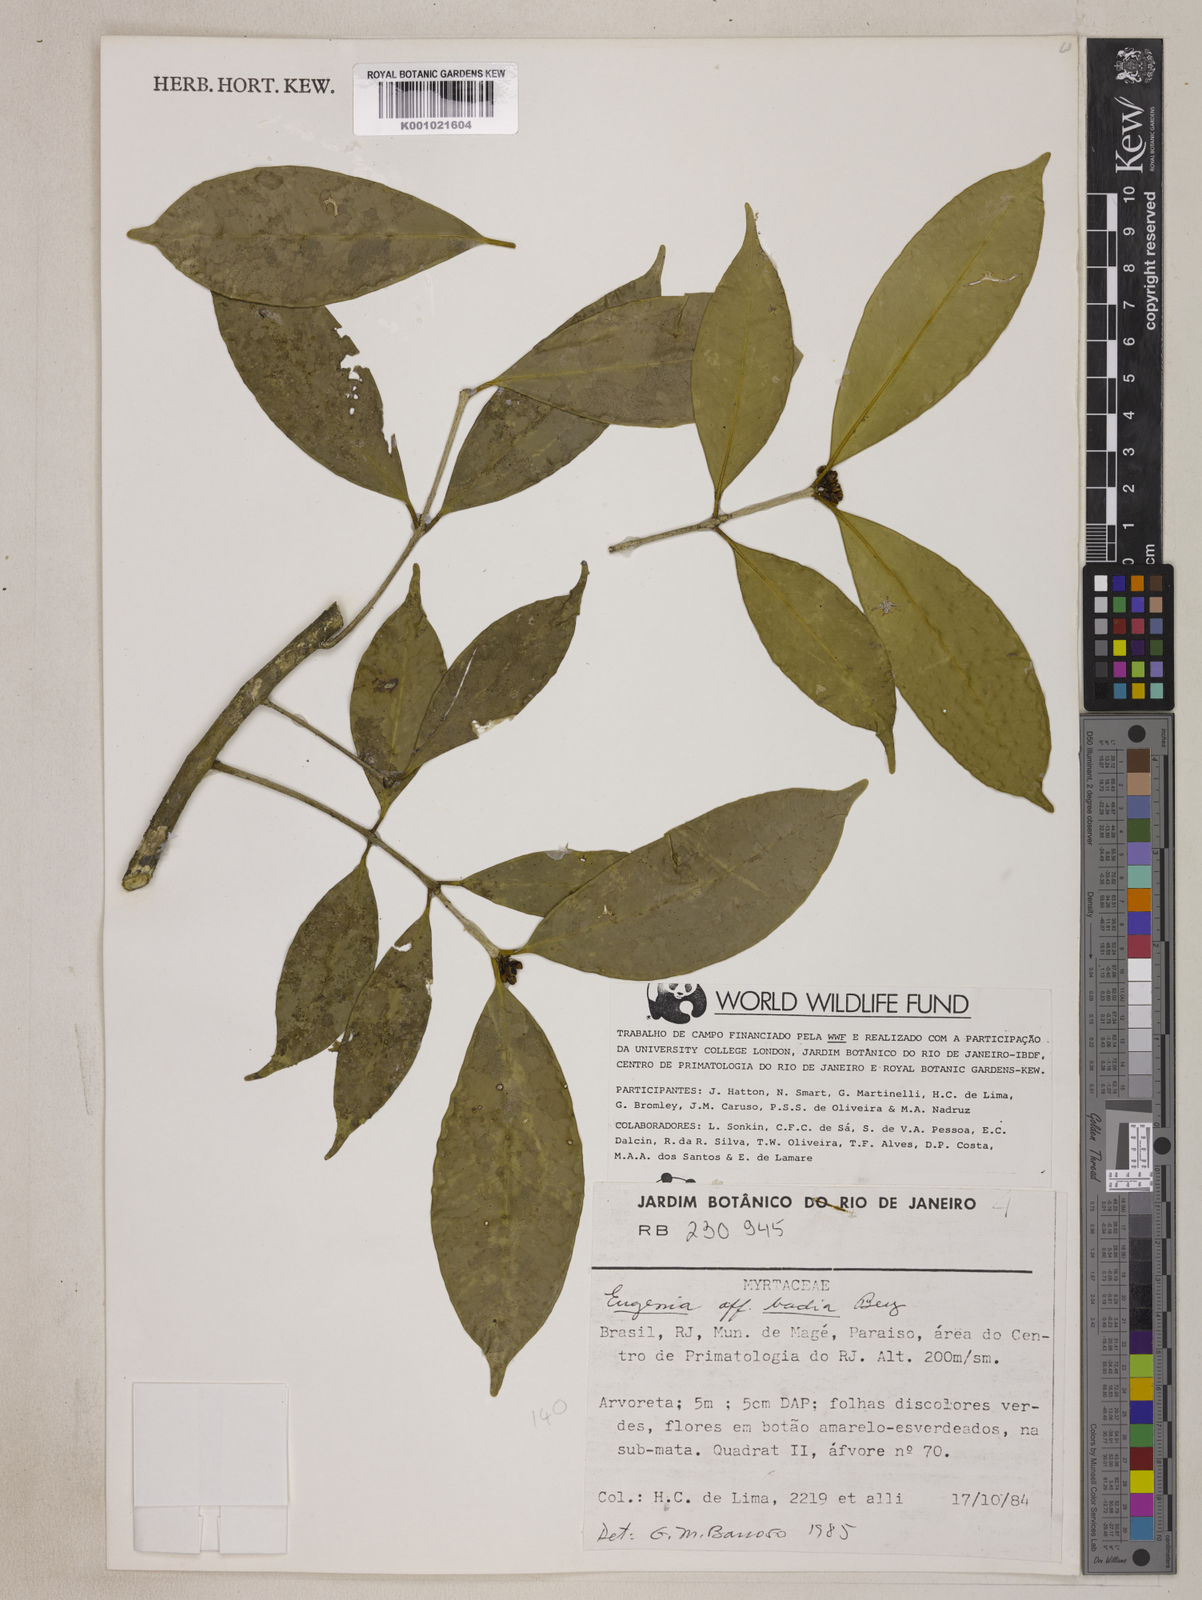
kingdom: Plantae
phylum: Tracheophyta
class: Magnoliopsida
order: Myrtales
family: Myrtaceae
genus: Eugenia
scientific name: Eugenia badia
